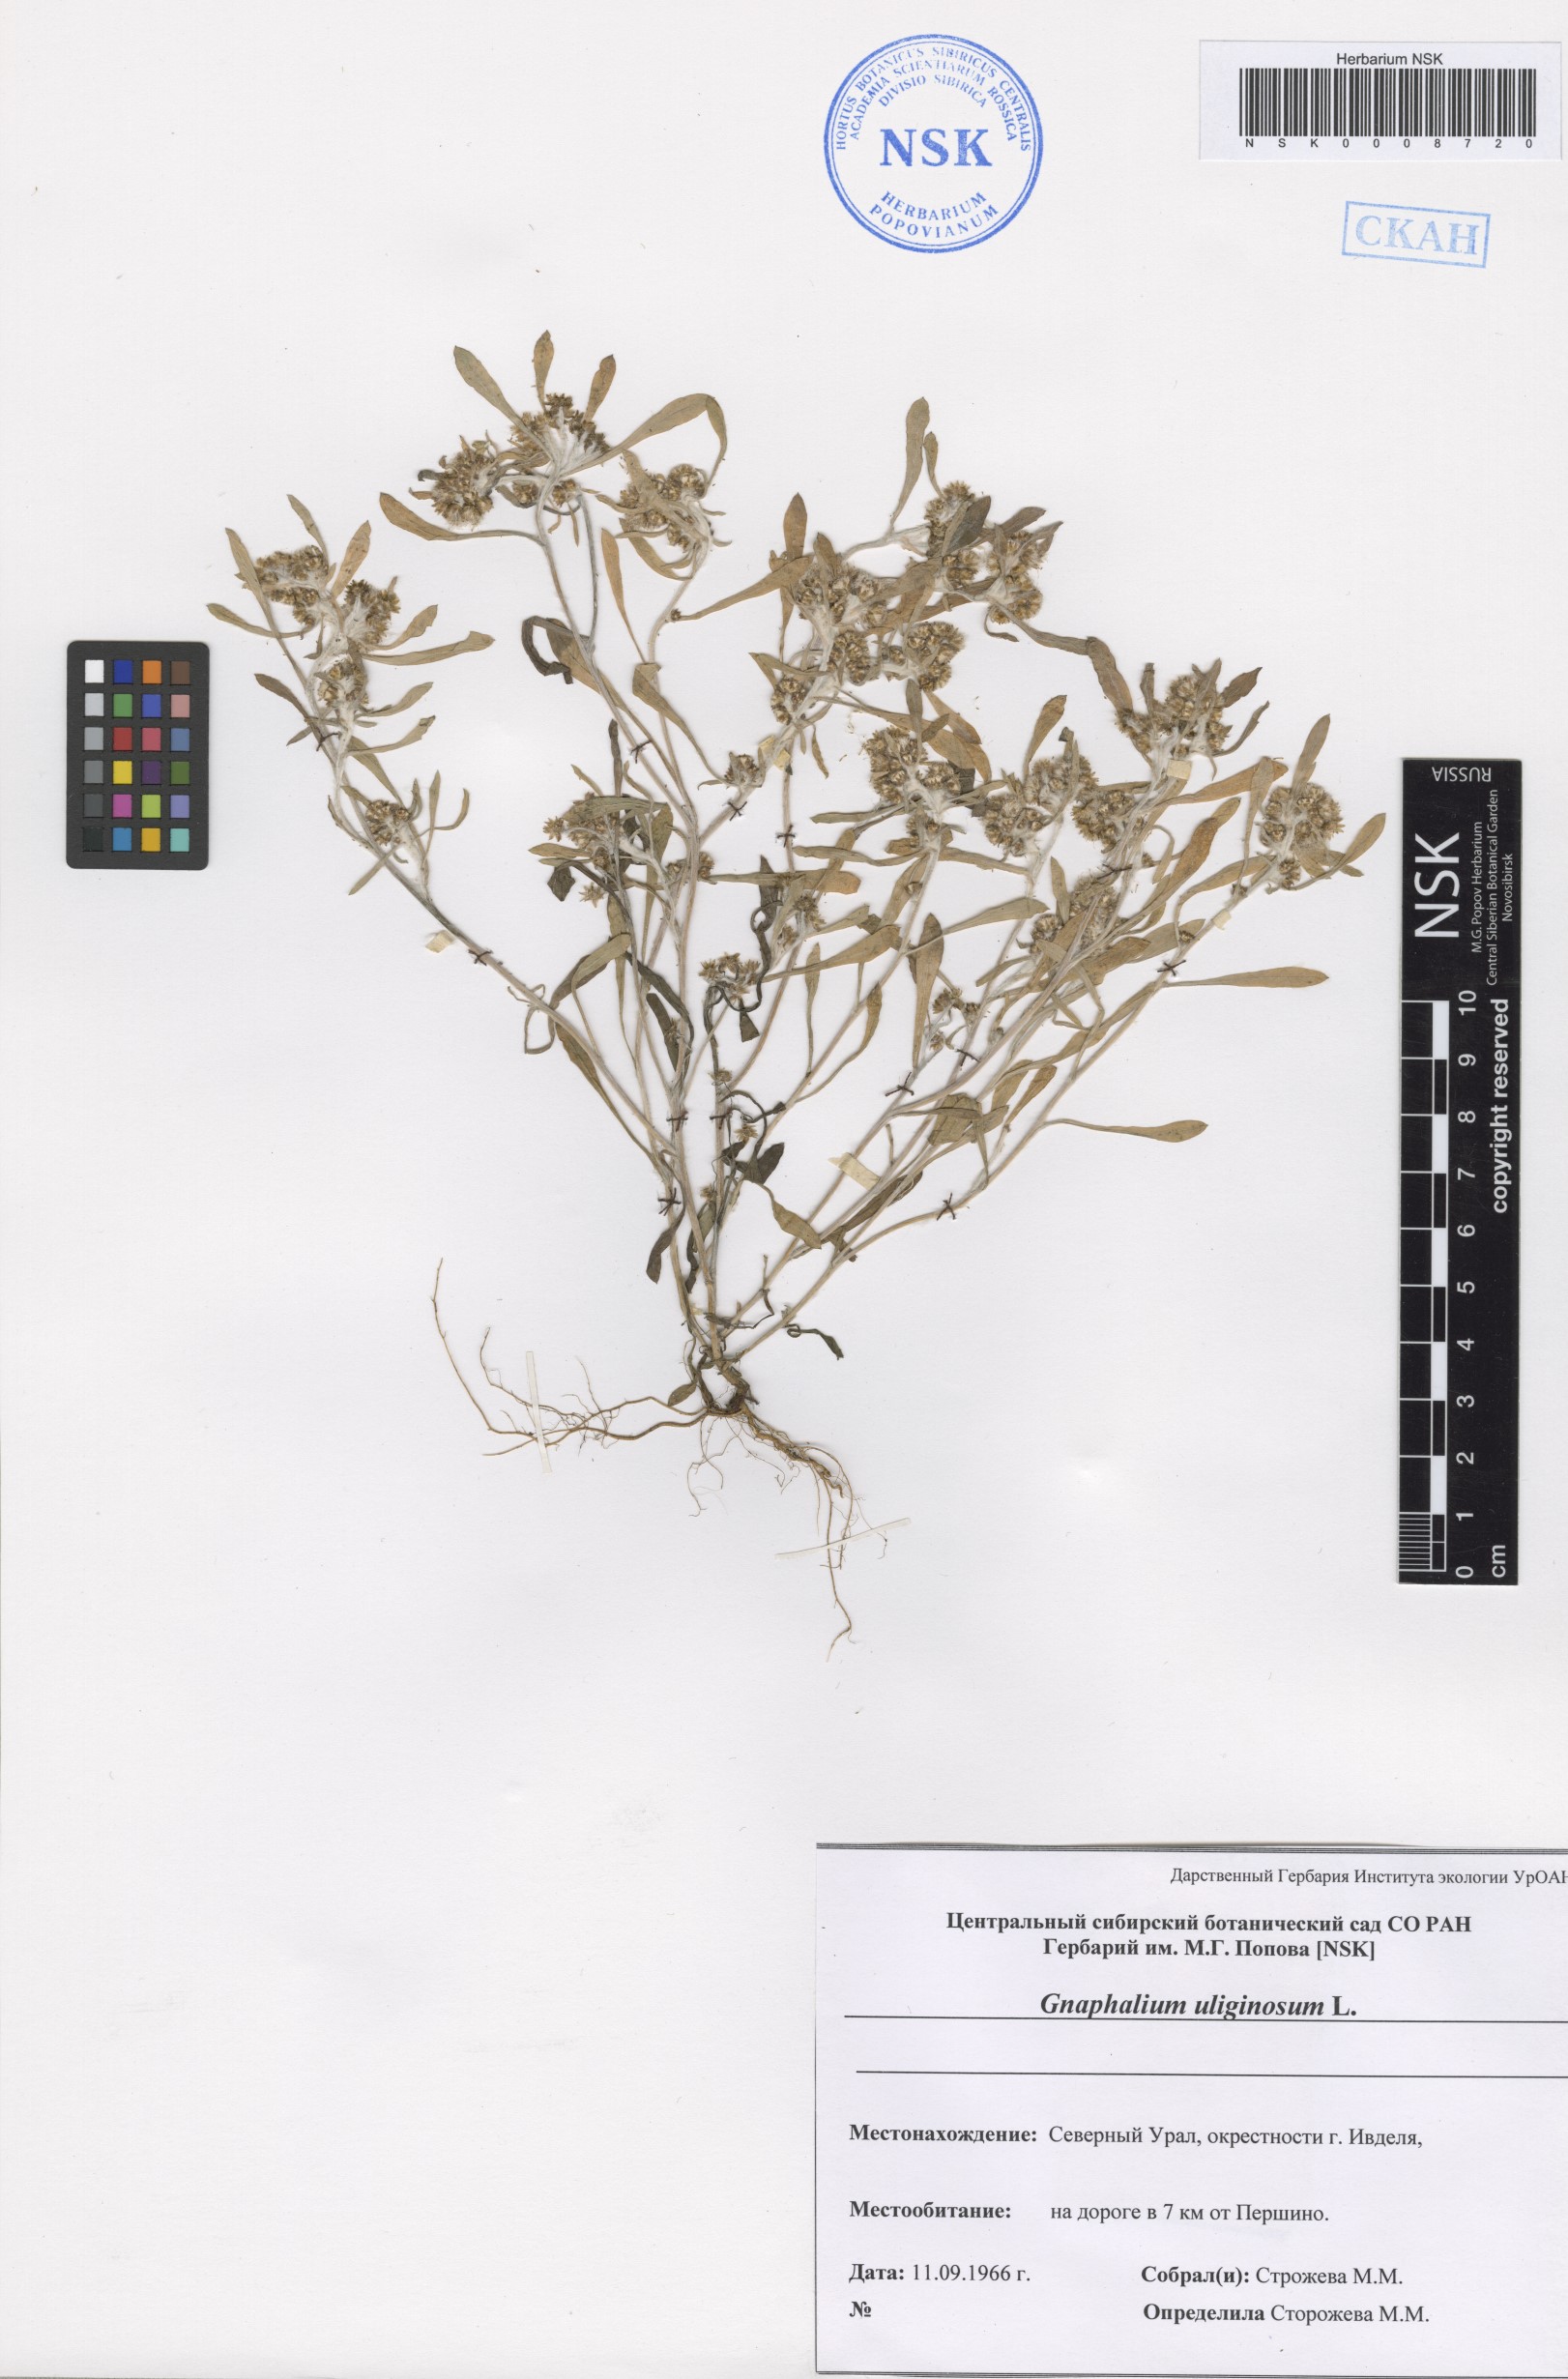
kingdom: Plantae
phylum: Tracheophyta
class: Magnoliopsida
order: Asterales
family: Asteraceae
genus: Gnaphalium
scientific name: Gnaphalium uliginosum
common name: Marsh cudweed
